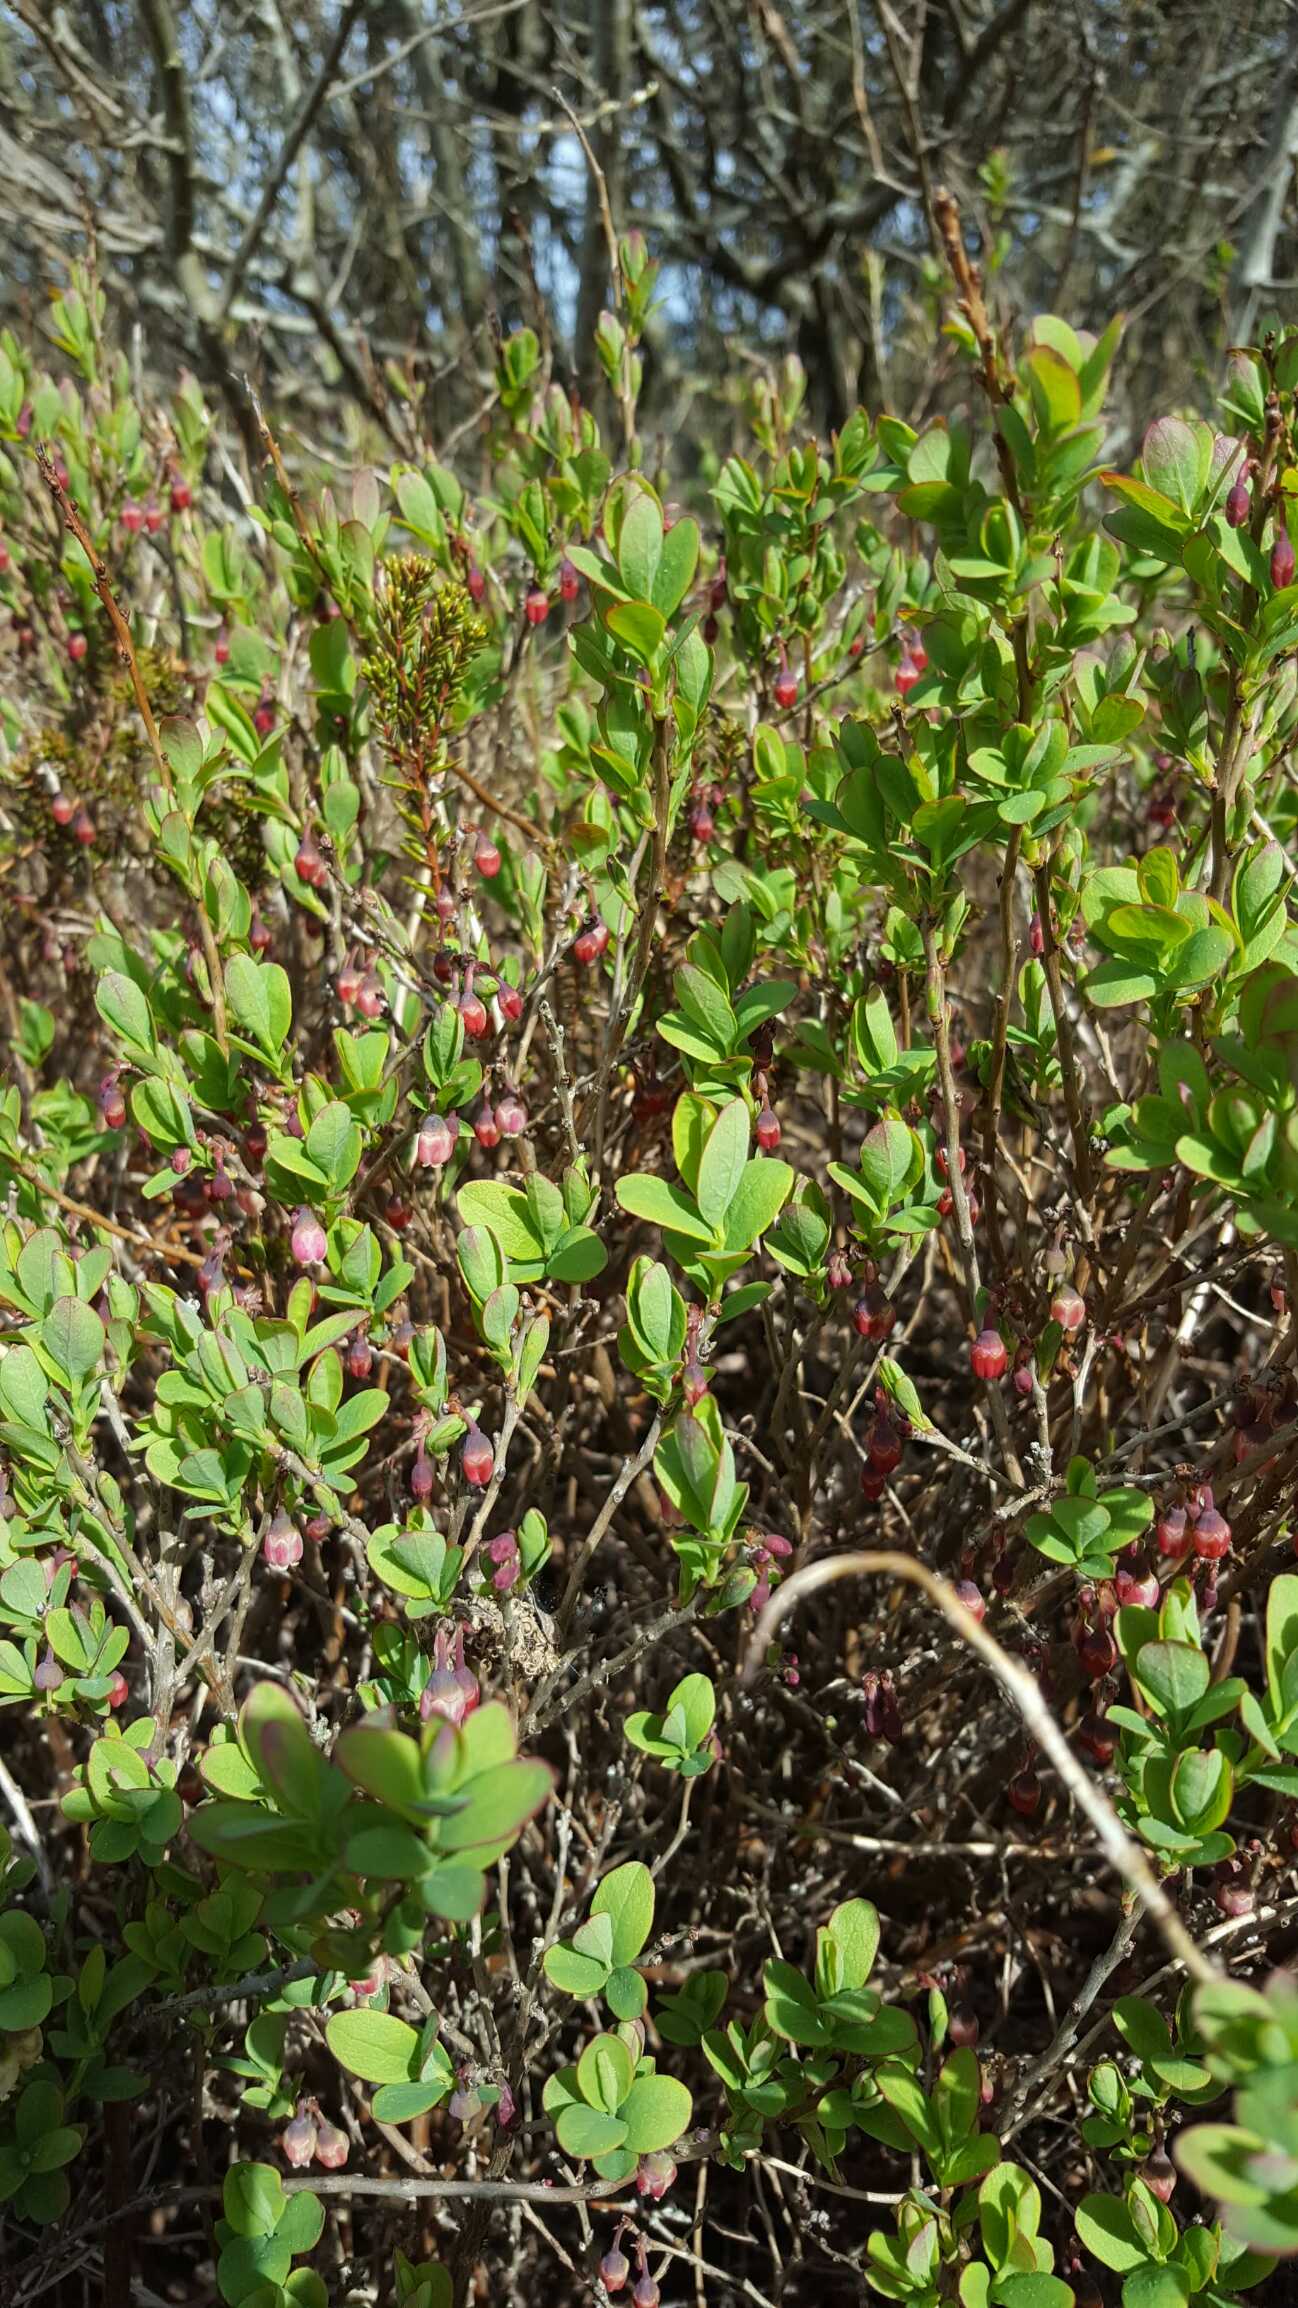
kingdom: Plantae
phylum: Tracheophyta
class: Magnoliopsida
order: Ericales
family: Ericaceae
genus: Vaccinium
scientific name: Vaccinium uliginosum
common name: Mose-bølle
